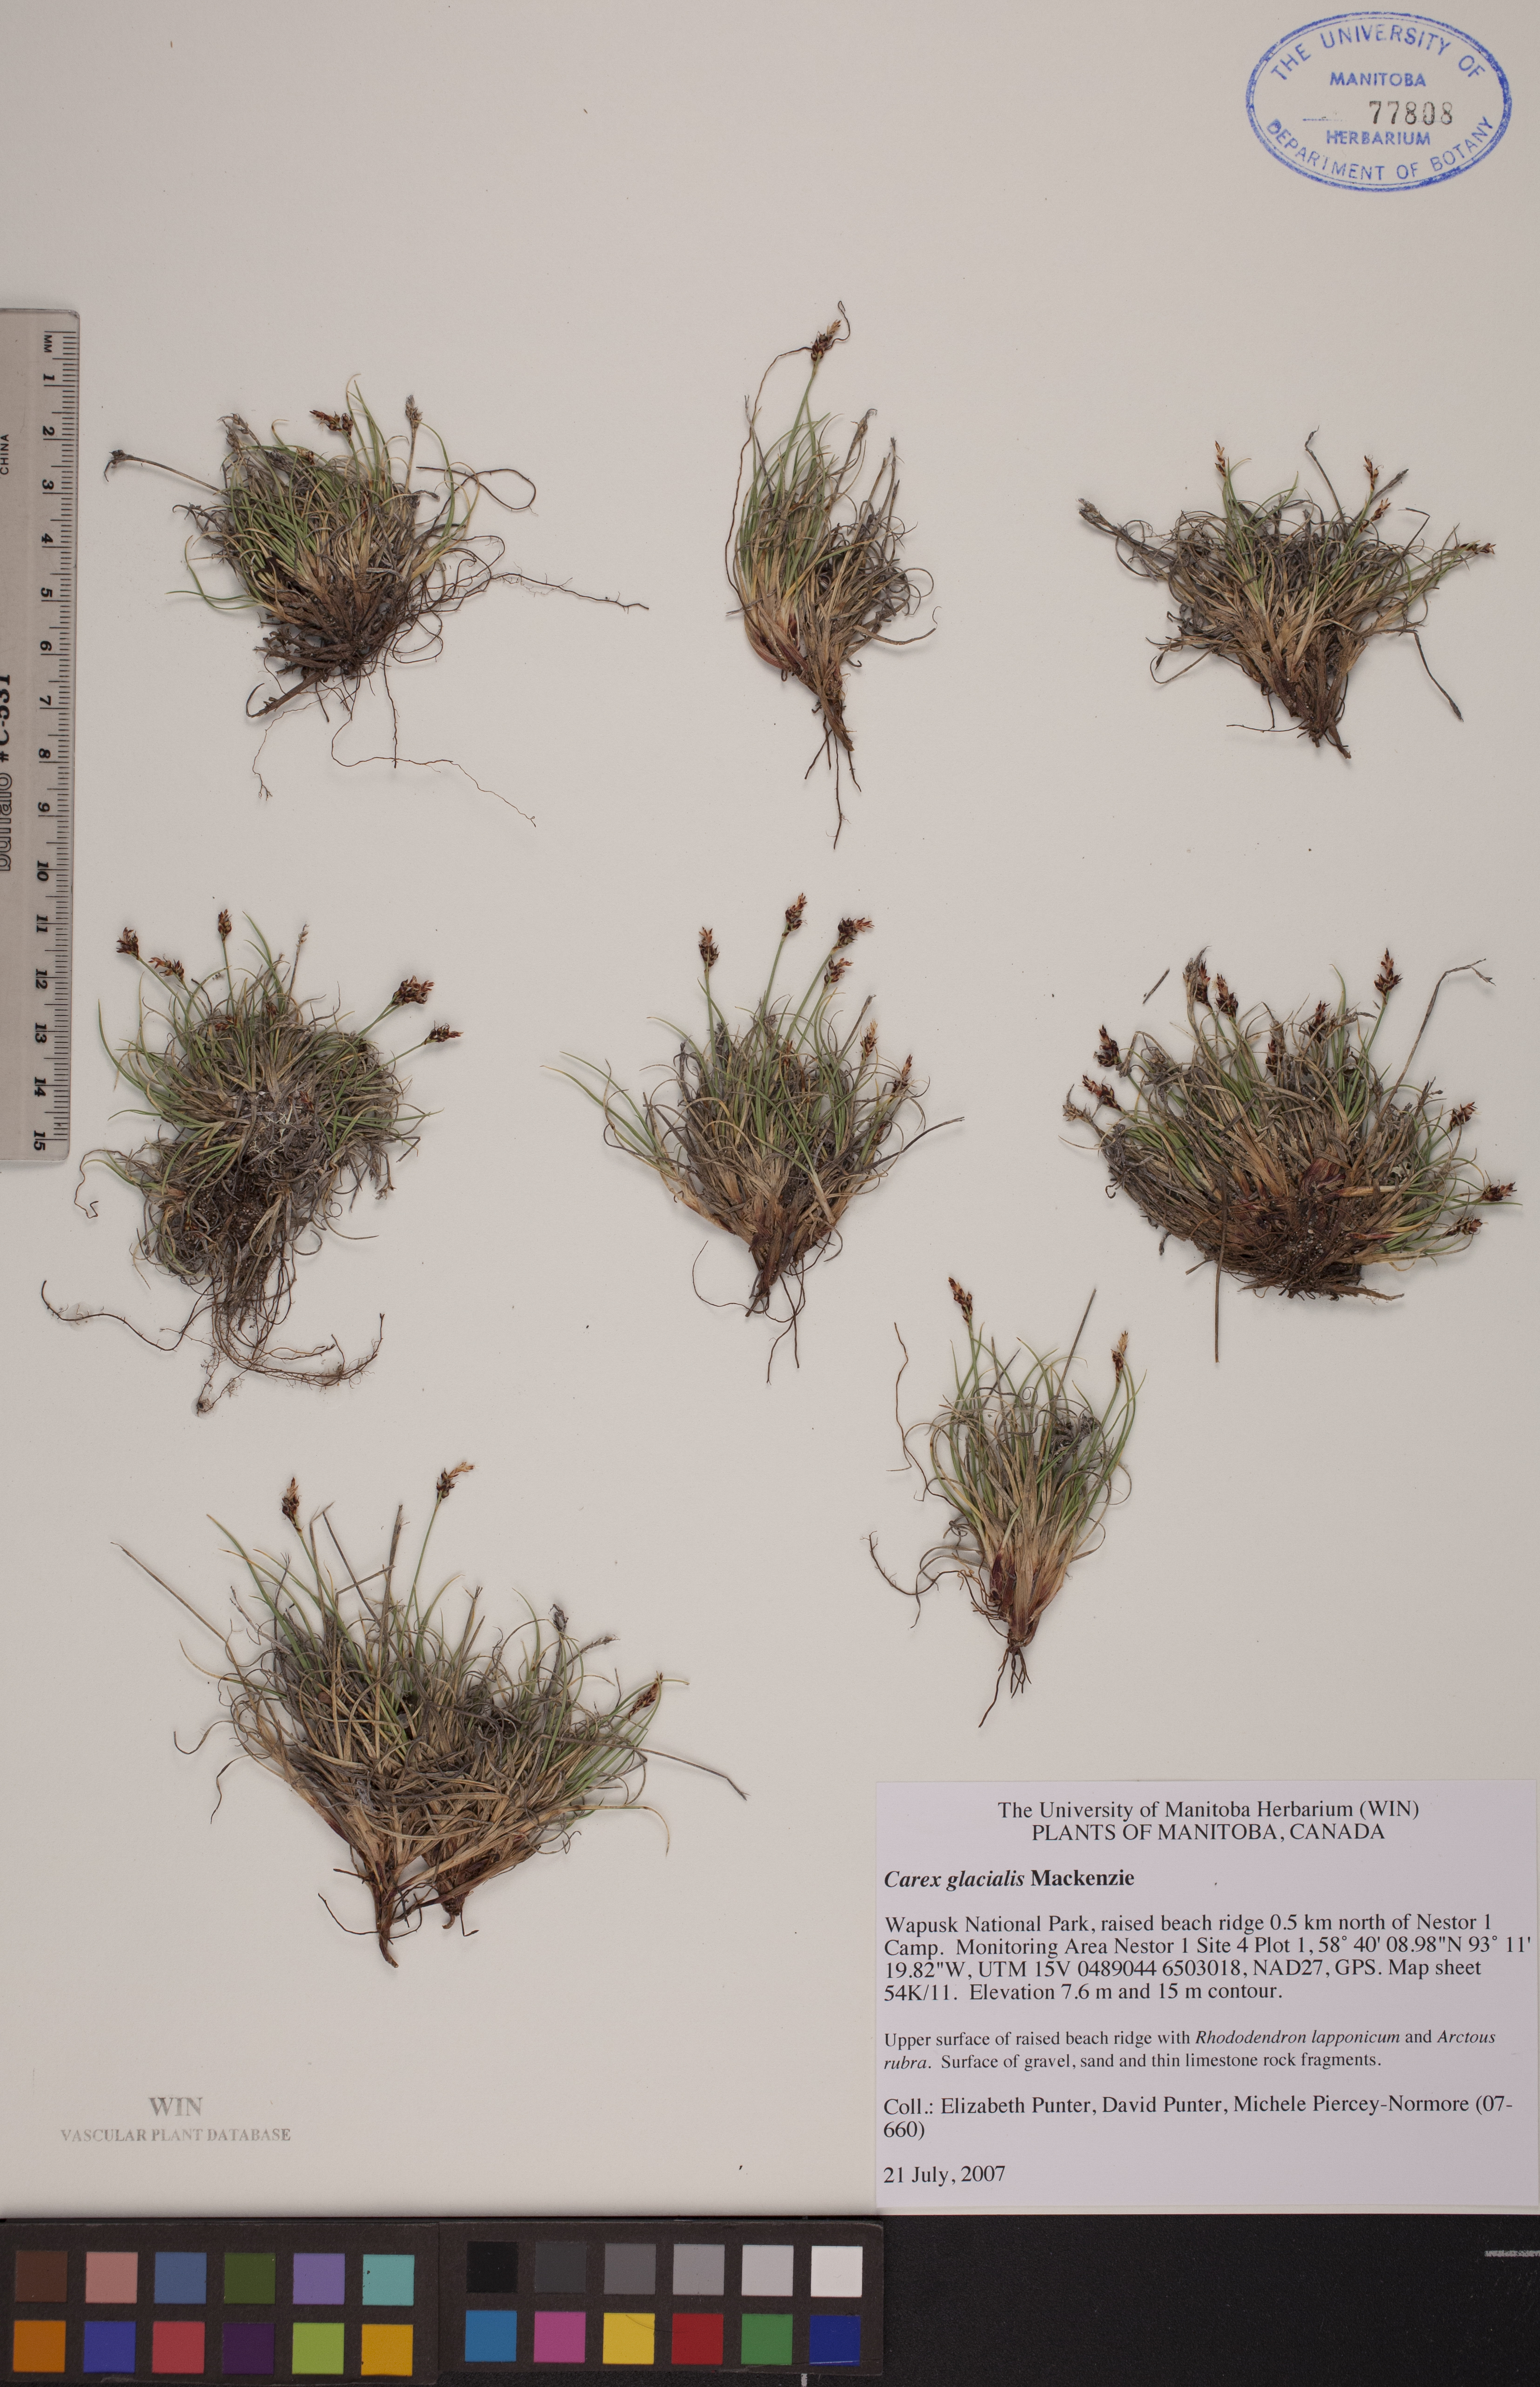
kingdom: Plantae
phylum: Tracheophyta
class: Liliopsida
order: Poales
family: Cyperaceae
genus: Carex
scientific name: Carex glacialis
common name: Newfoundland sedge
